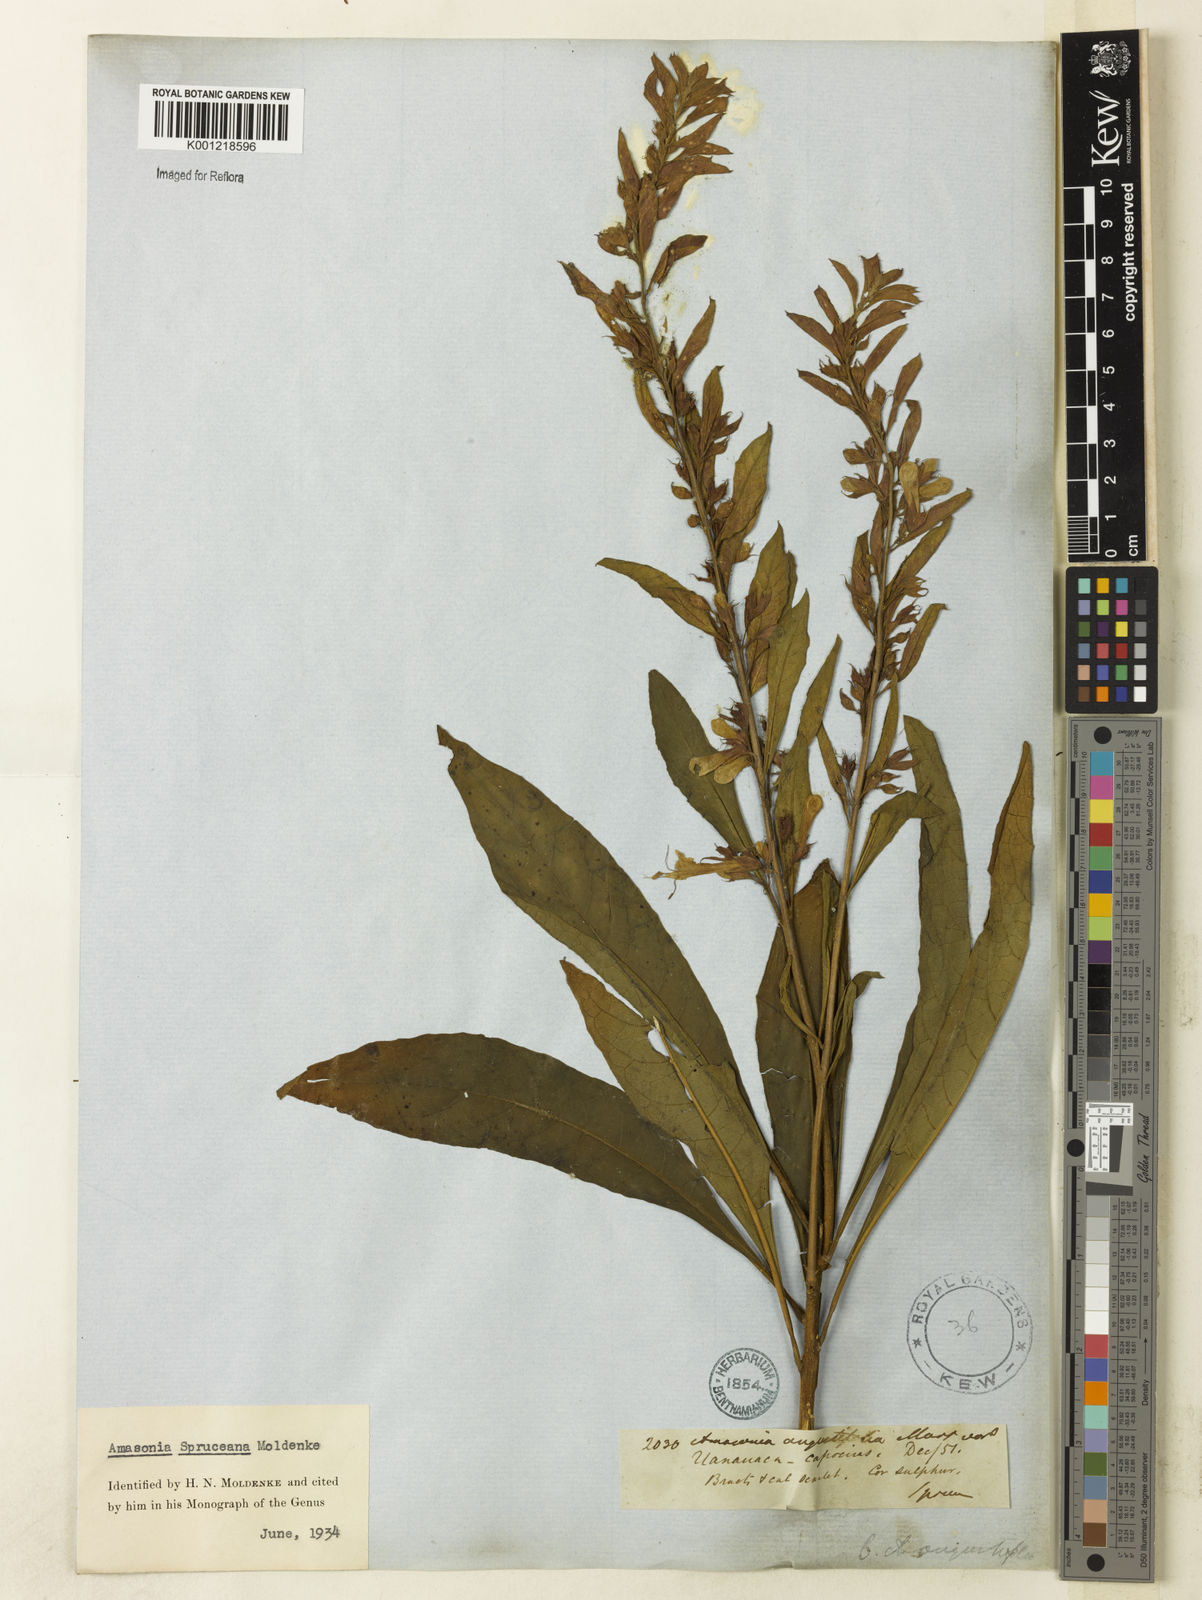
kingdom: Plantae
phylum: Tracheophyta
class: Magnoliopsida
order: Lamiales
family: Lamiaceae
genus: Amasonia
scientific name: Amasonia campestris
